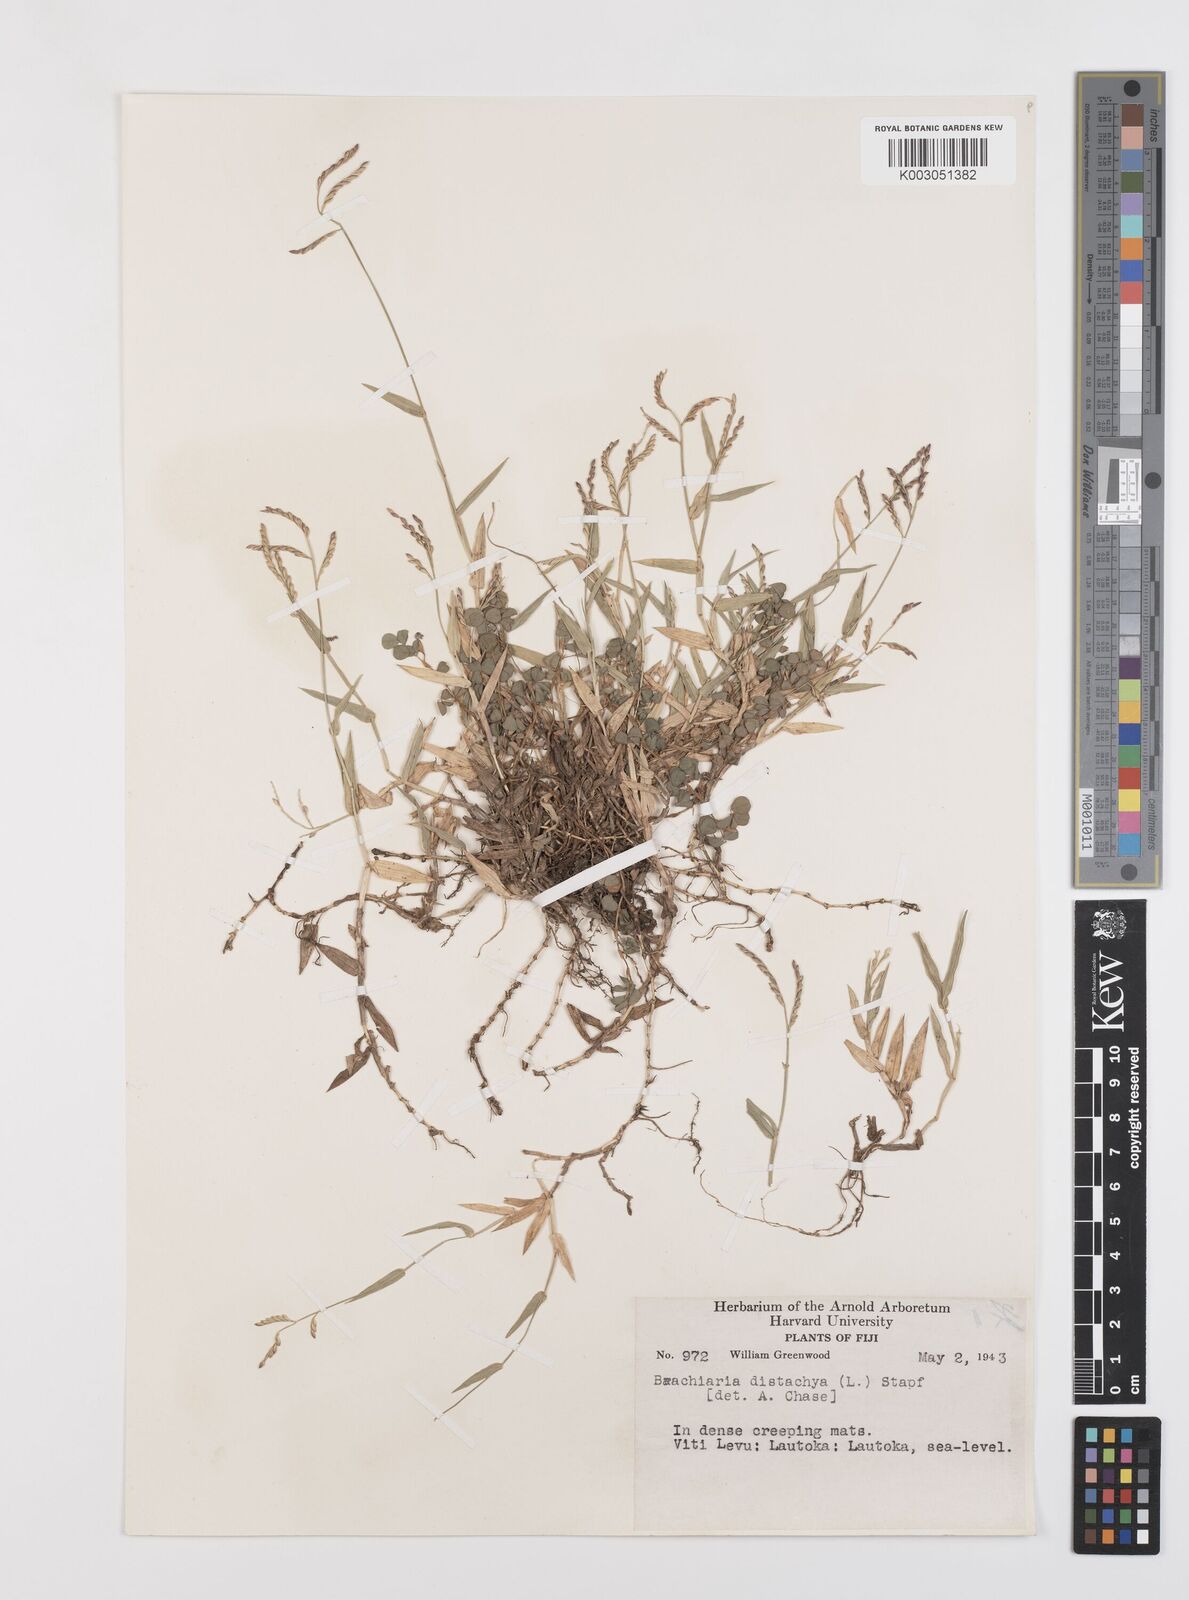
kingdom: Plantae
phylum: Tracheophyta
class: Liliopsida
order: Poales
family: Poaceae
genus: Urochloa
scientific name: Urochloa distachyos
